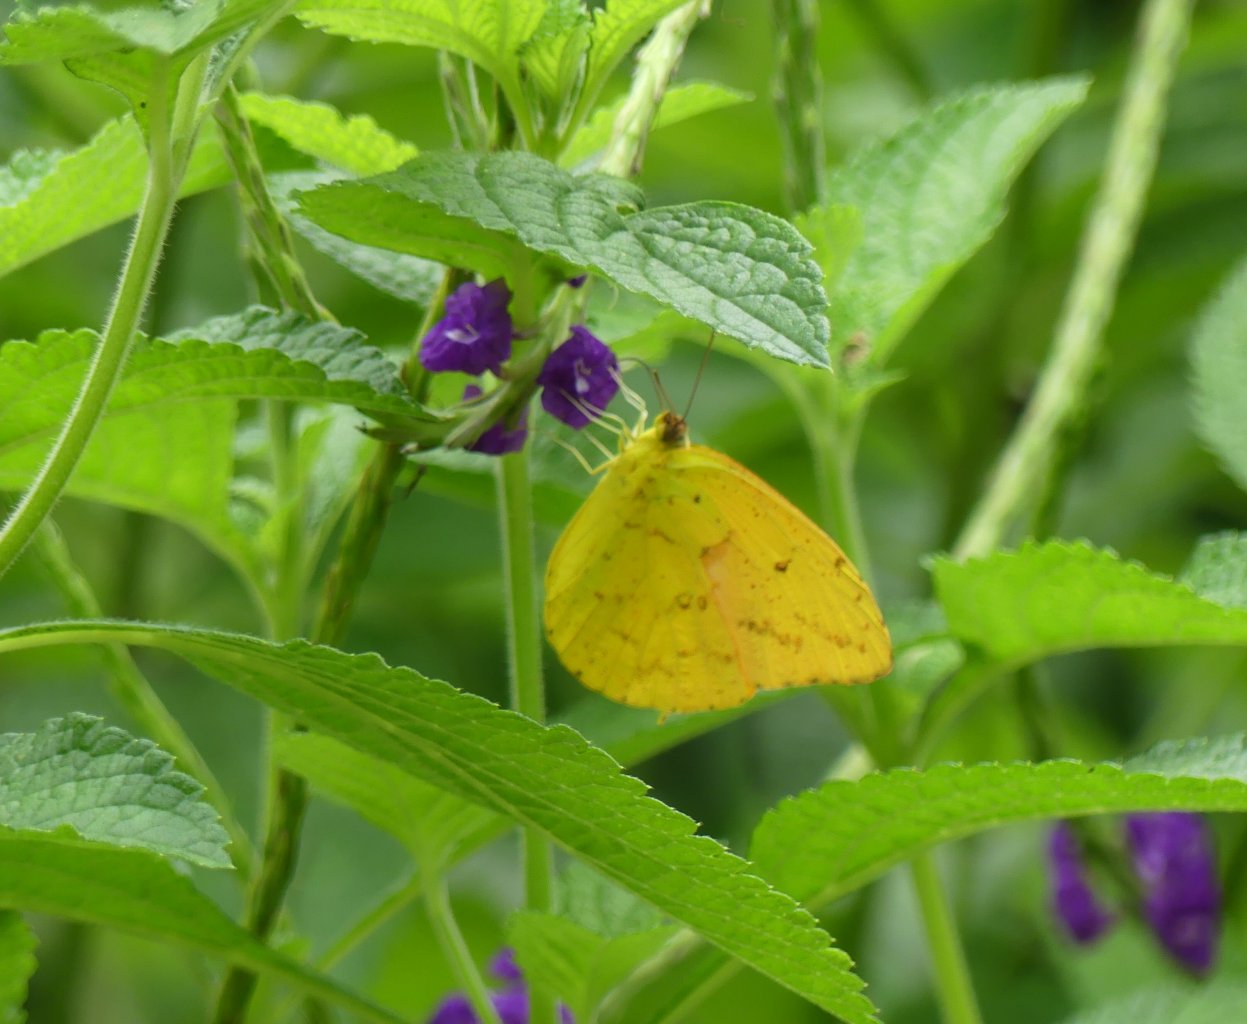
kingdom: Animalia
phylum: Arthropoda
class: Insecta
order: Lepidoptera
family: Pieridae
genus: Phoebis
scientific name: Phoebis argante
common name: Apricot Sulphur
